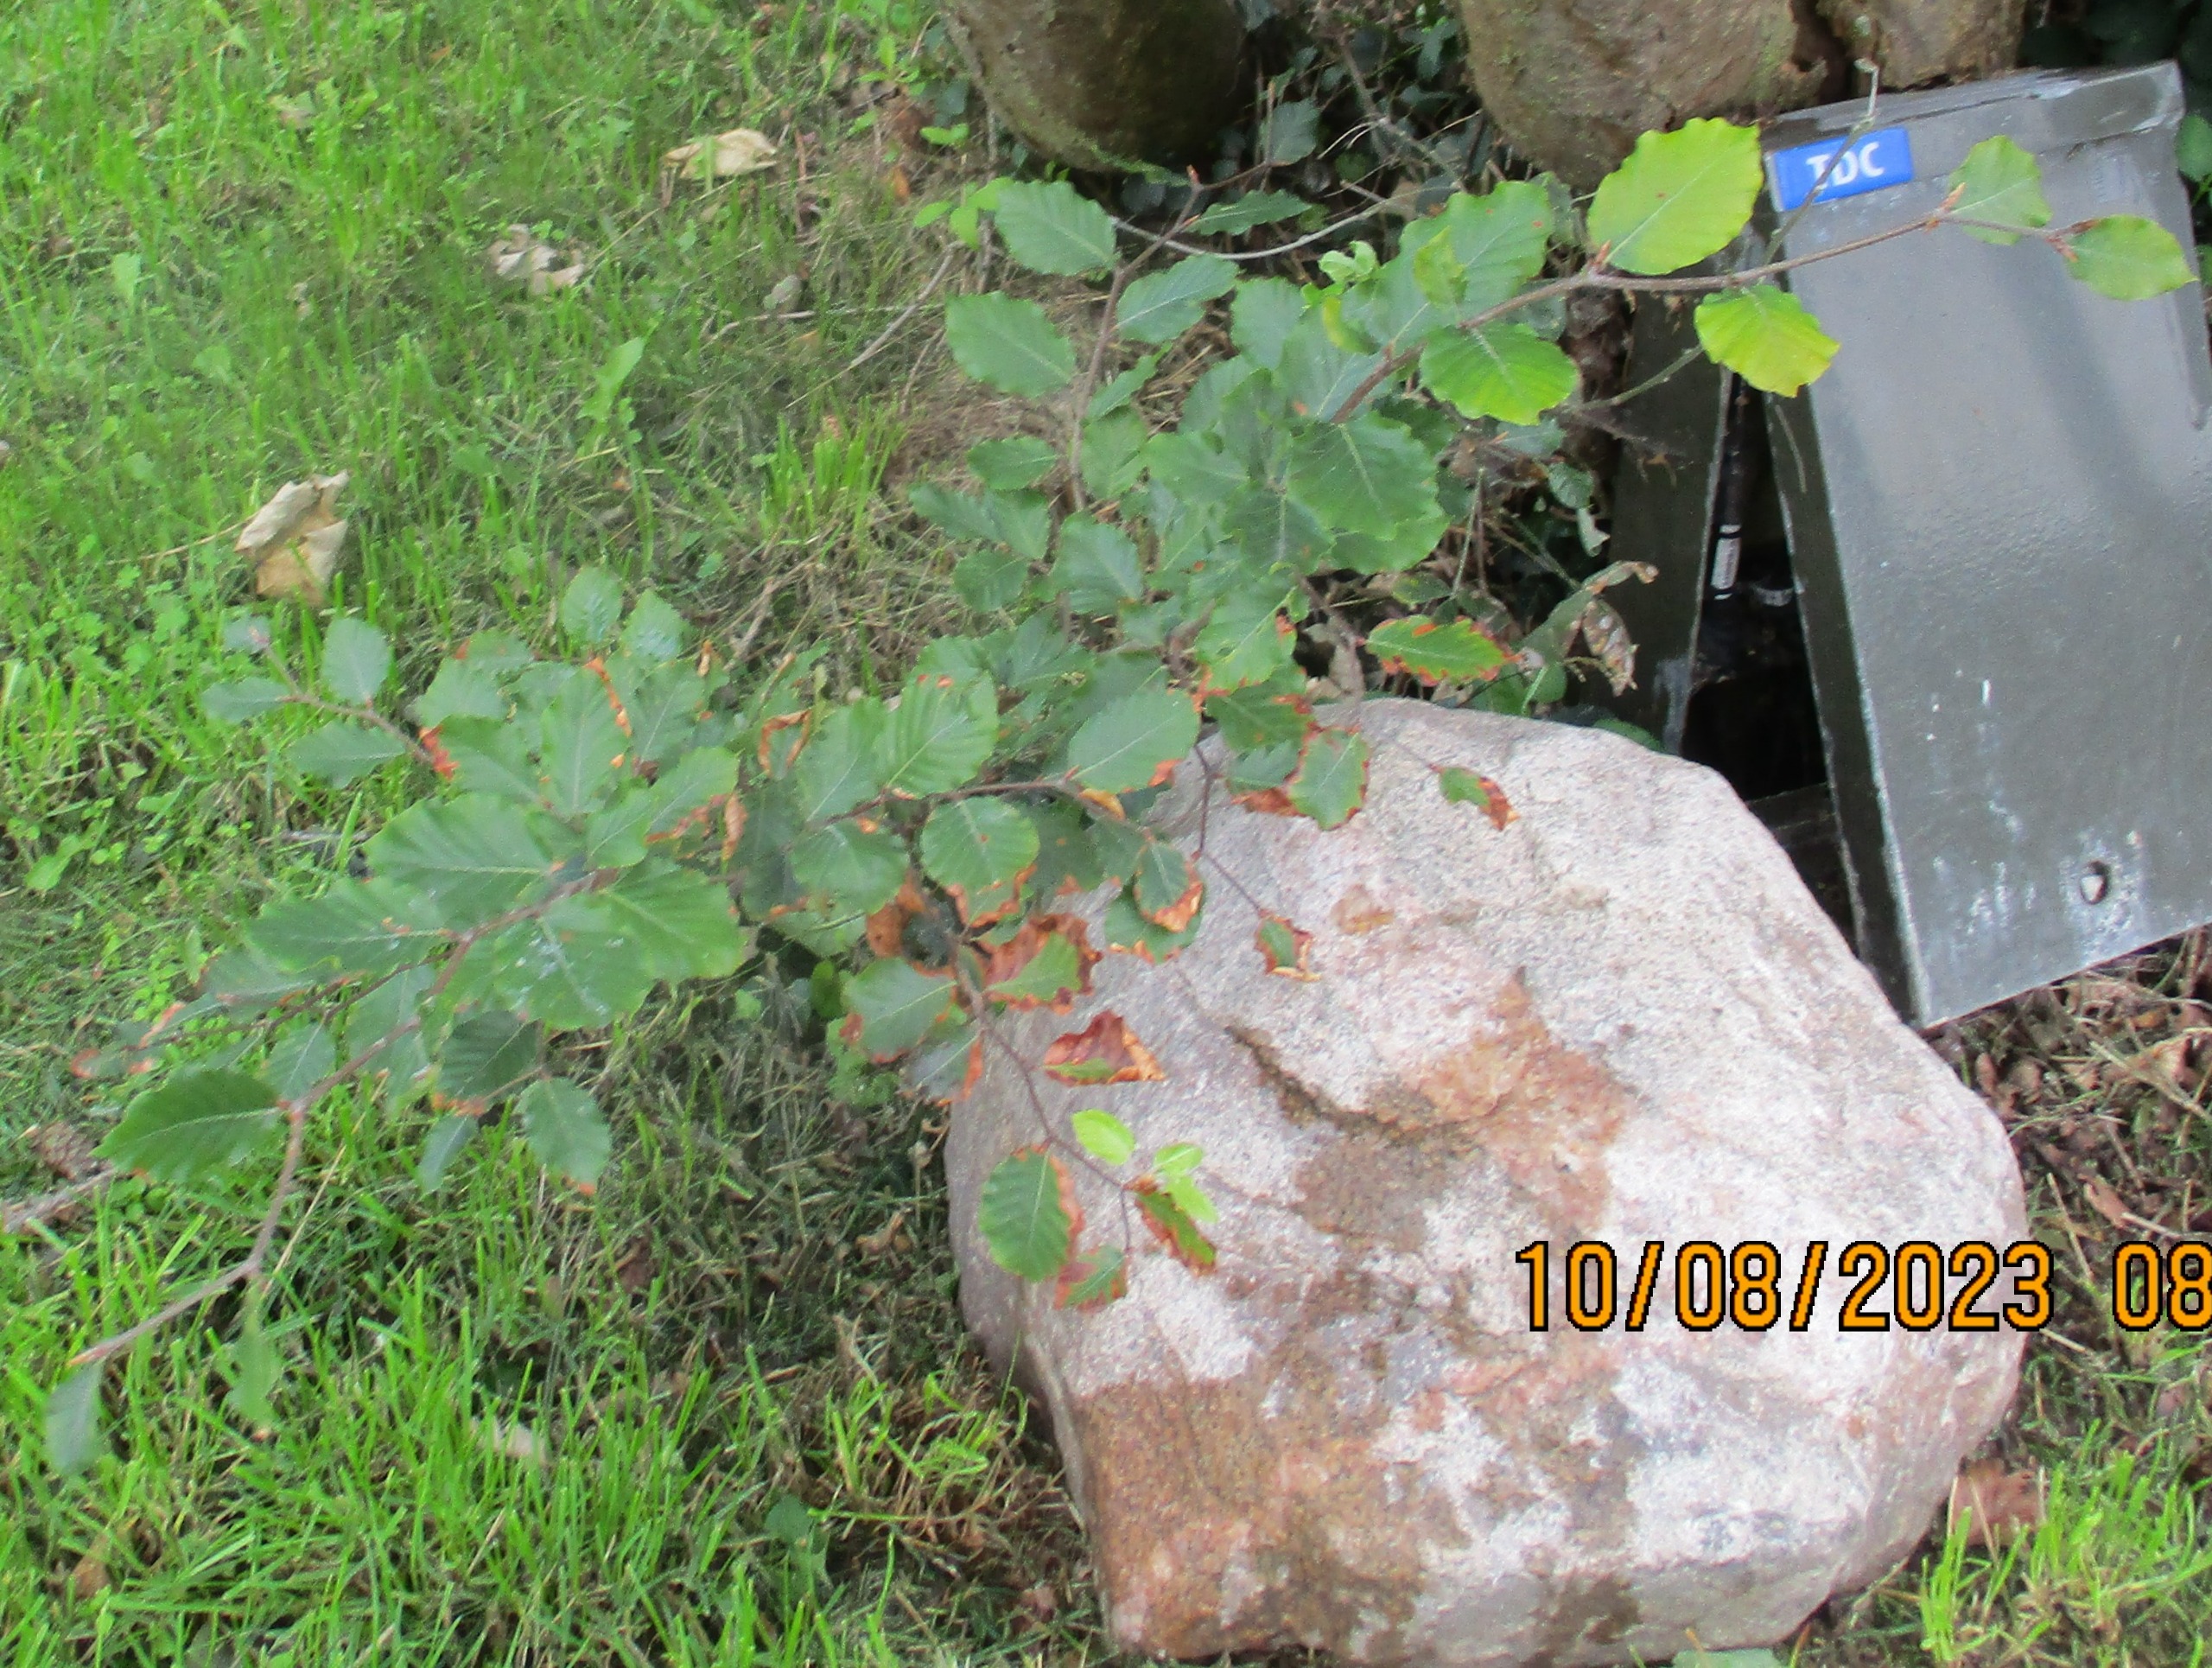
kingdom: Plantae
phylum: Tracheophyta
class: Magnoliopsida
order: Fagales
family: Fagaceae
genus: Fagus
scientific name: Fagus sylvatica
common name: Bøg
